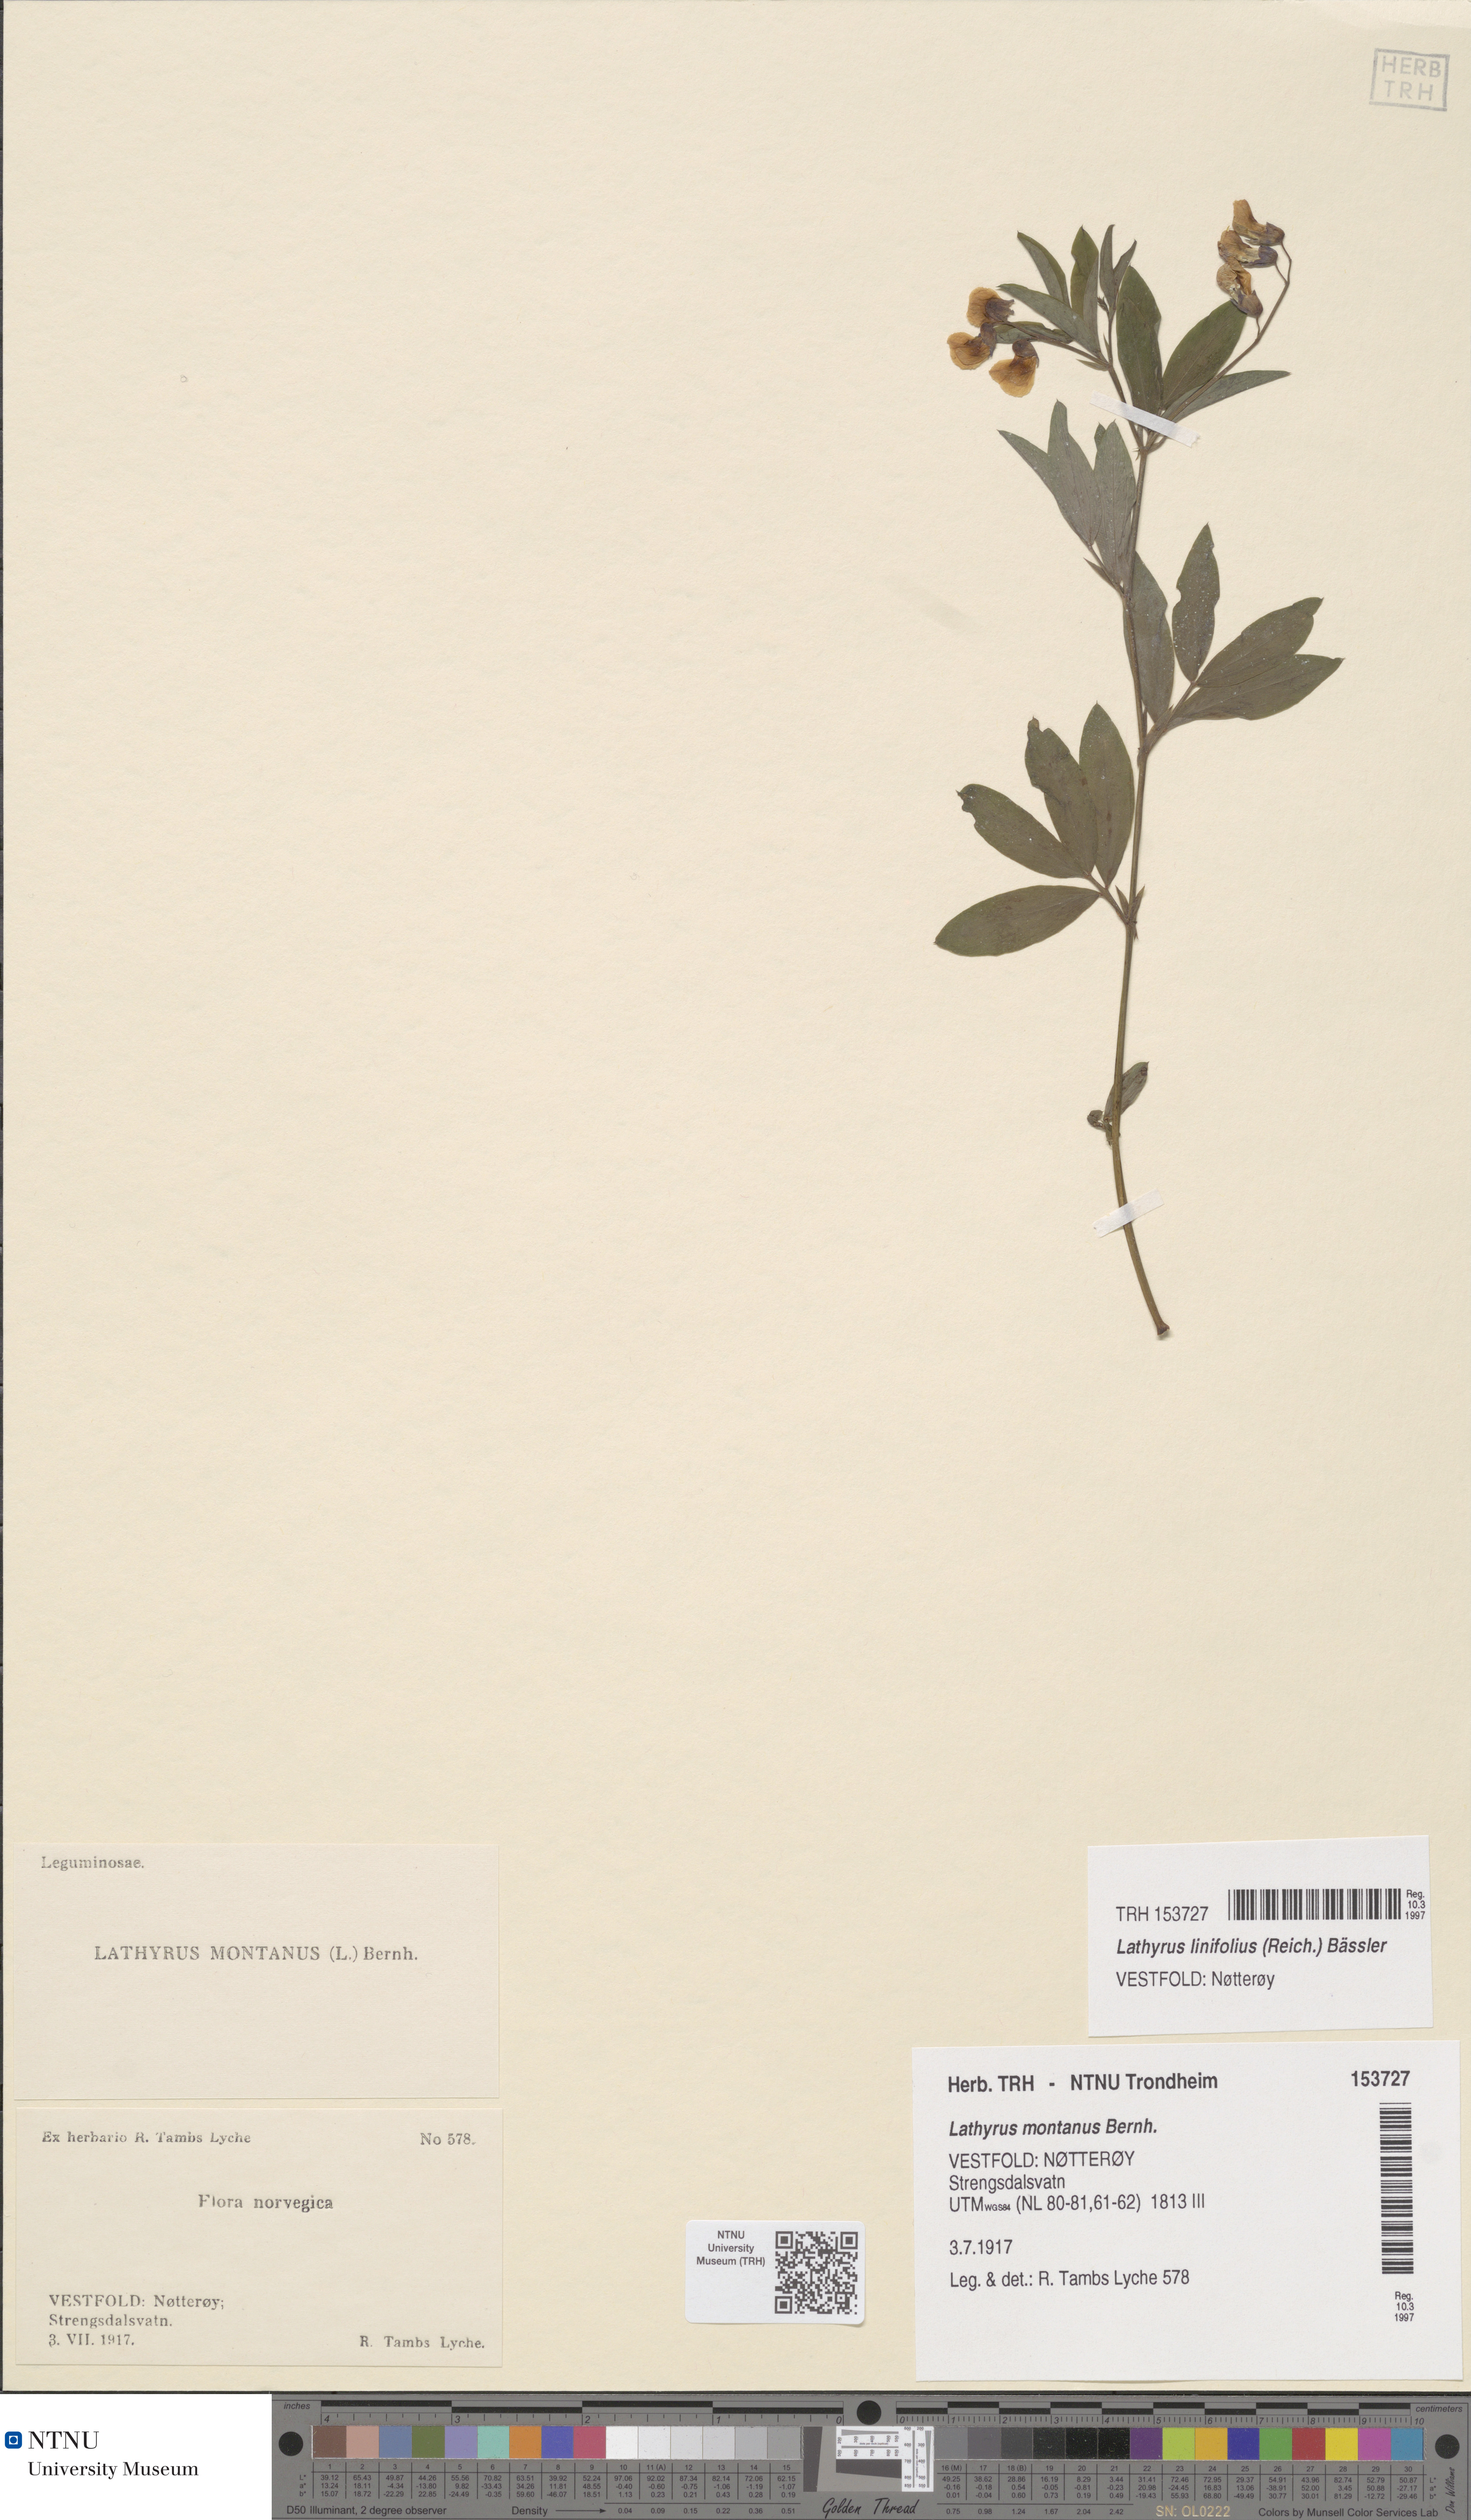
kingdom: Plantae
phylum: Tracheophyta
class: Magnoliopsida
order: Fabales
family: Fabaceae
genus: Lathyrus
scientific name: Lathyrus linifolius
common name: Bitter-vetch
